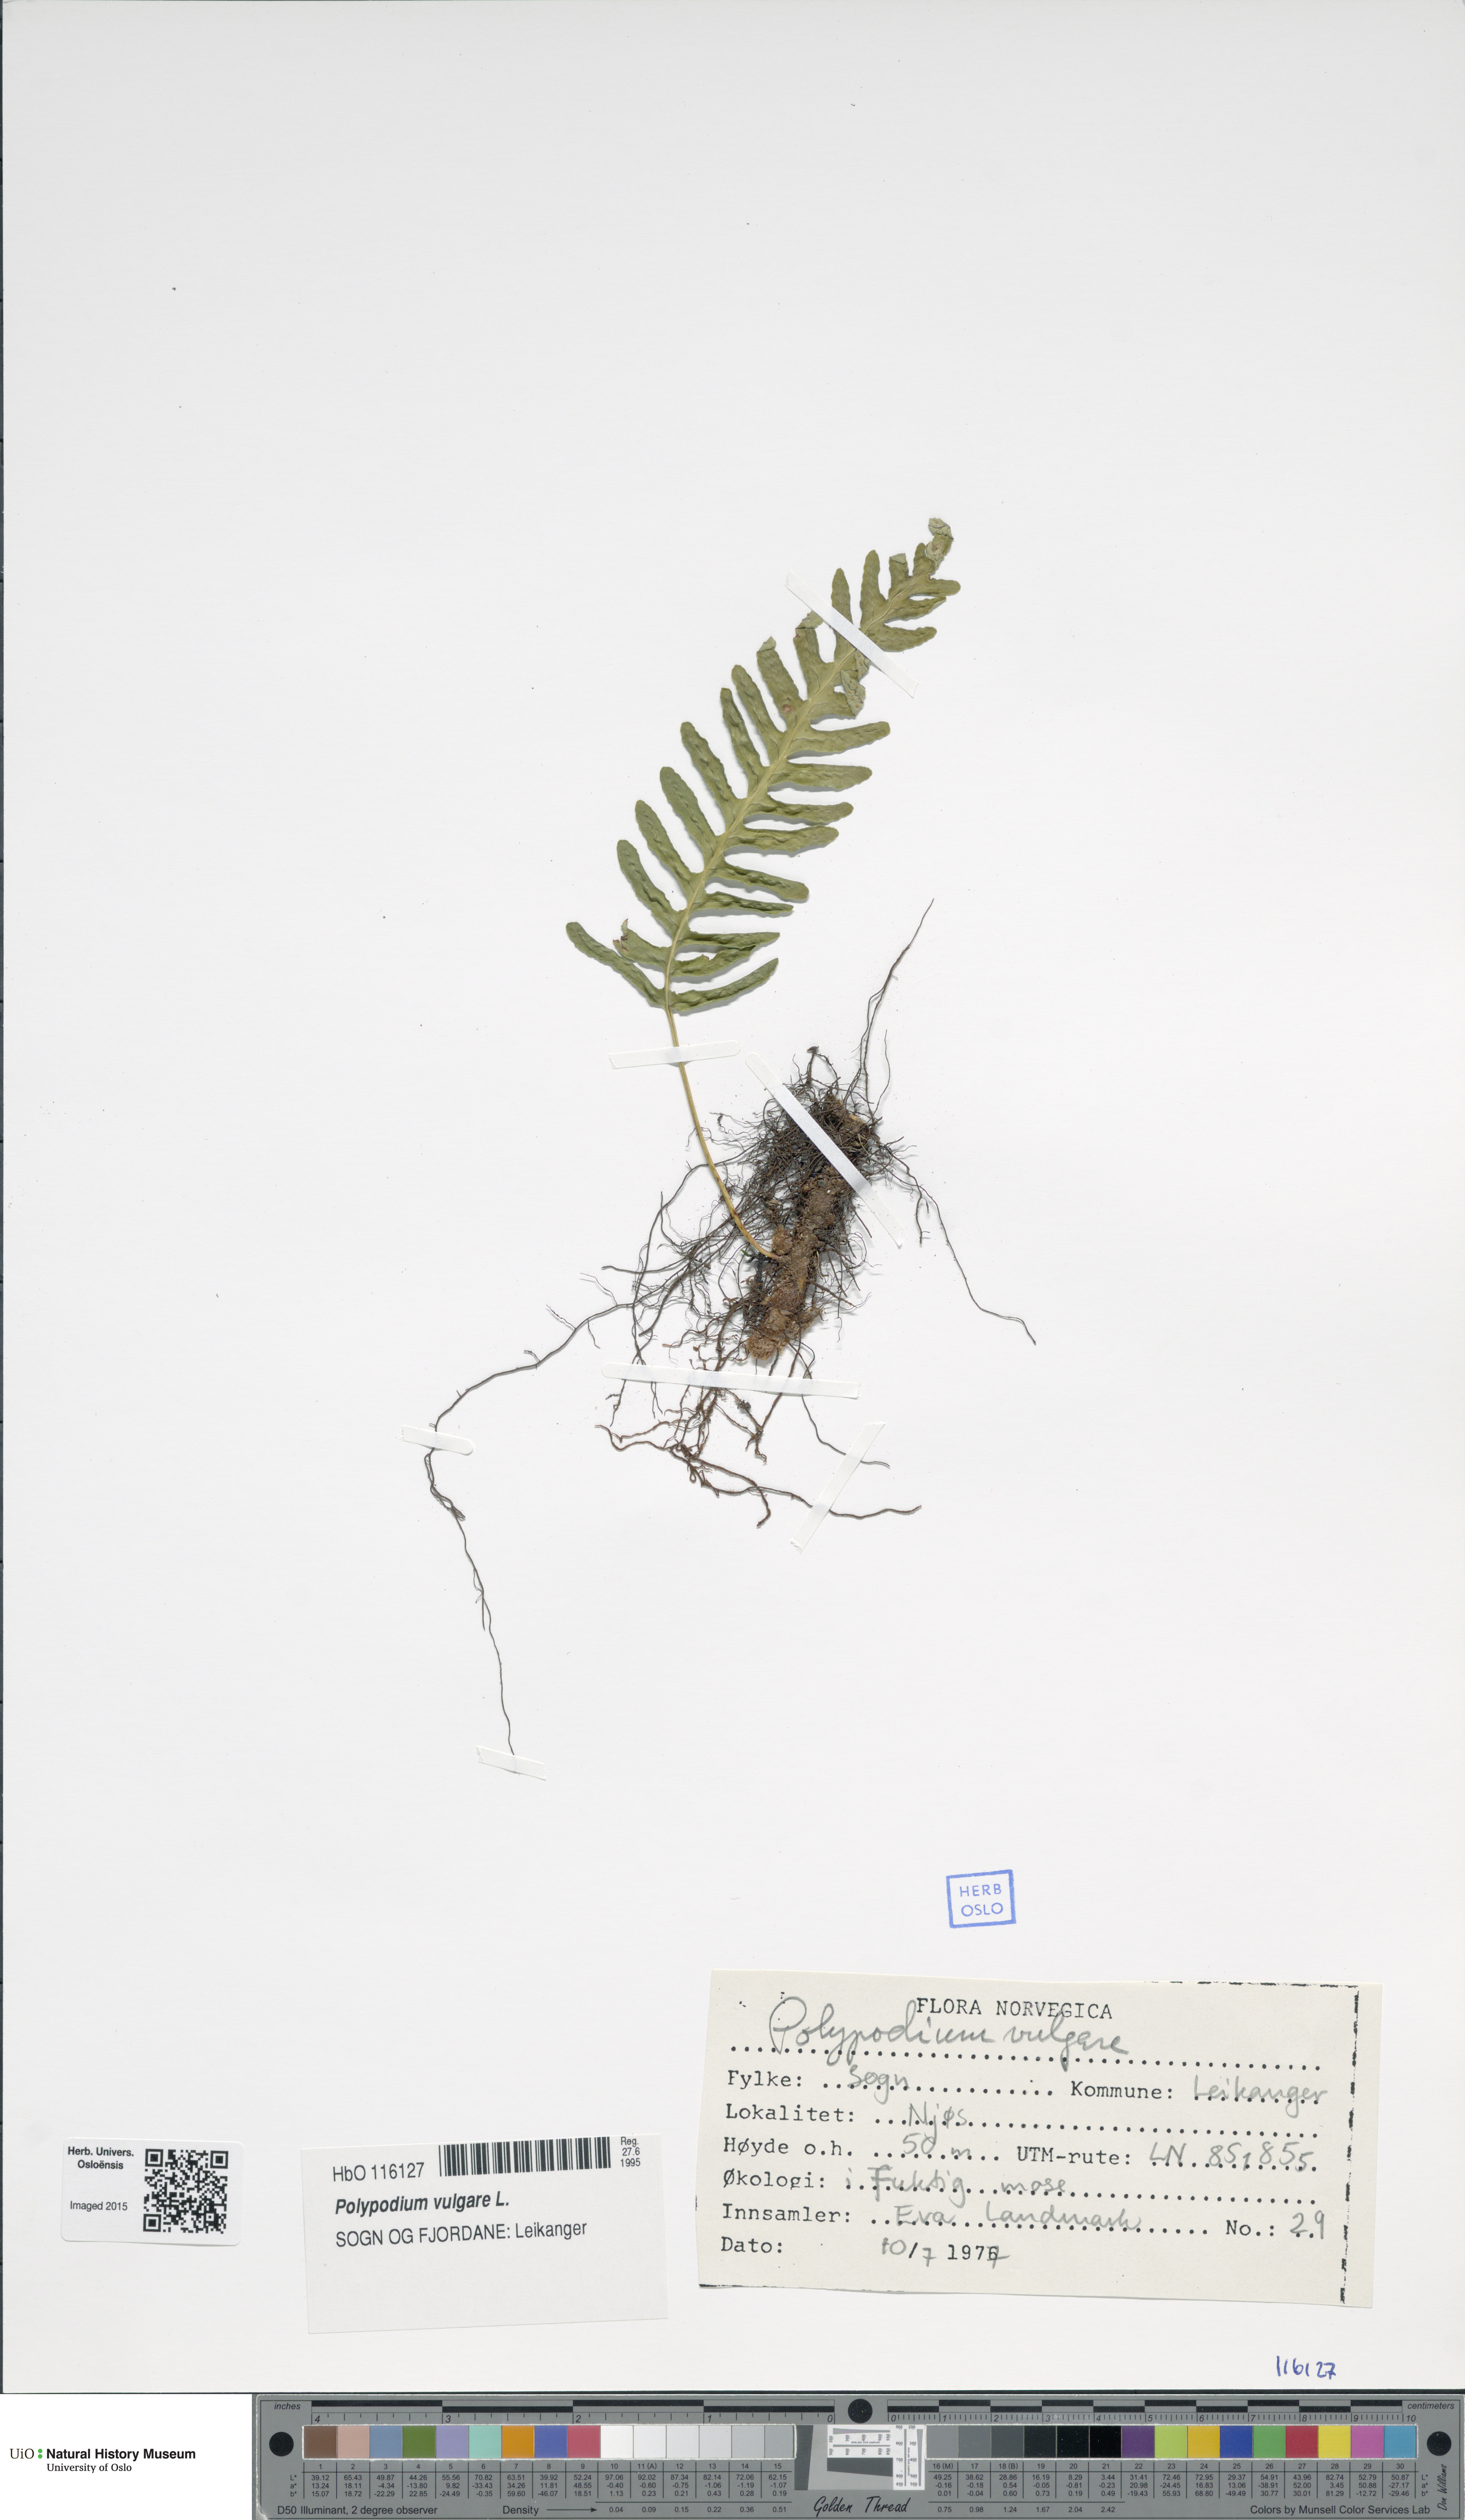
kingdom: Plantae
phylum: Tracheophyta
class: Polypodiopsida
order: Polypodiales
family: Polypodiaceae
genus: Polypodium
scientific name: Polypodium vulgare
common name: Common polypody
